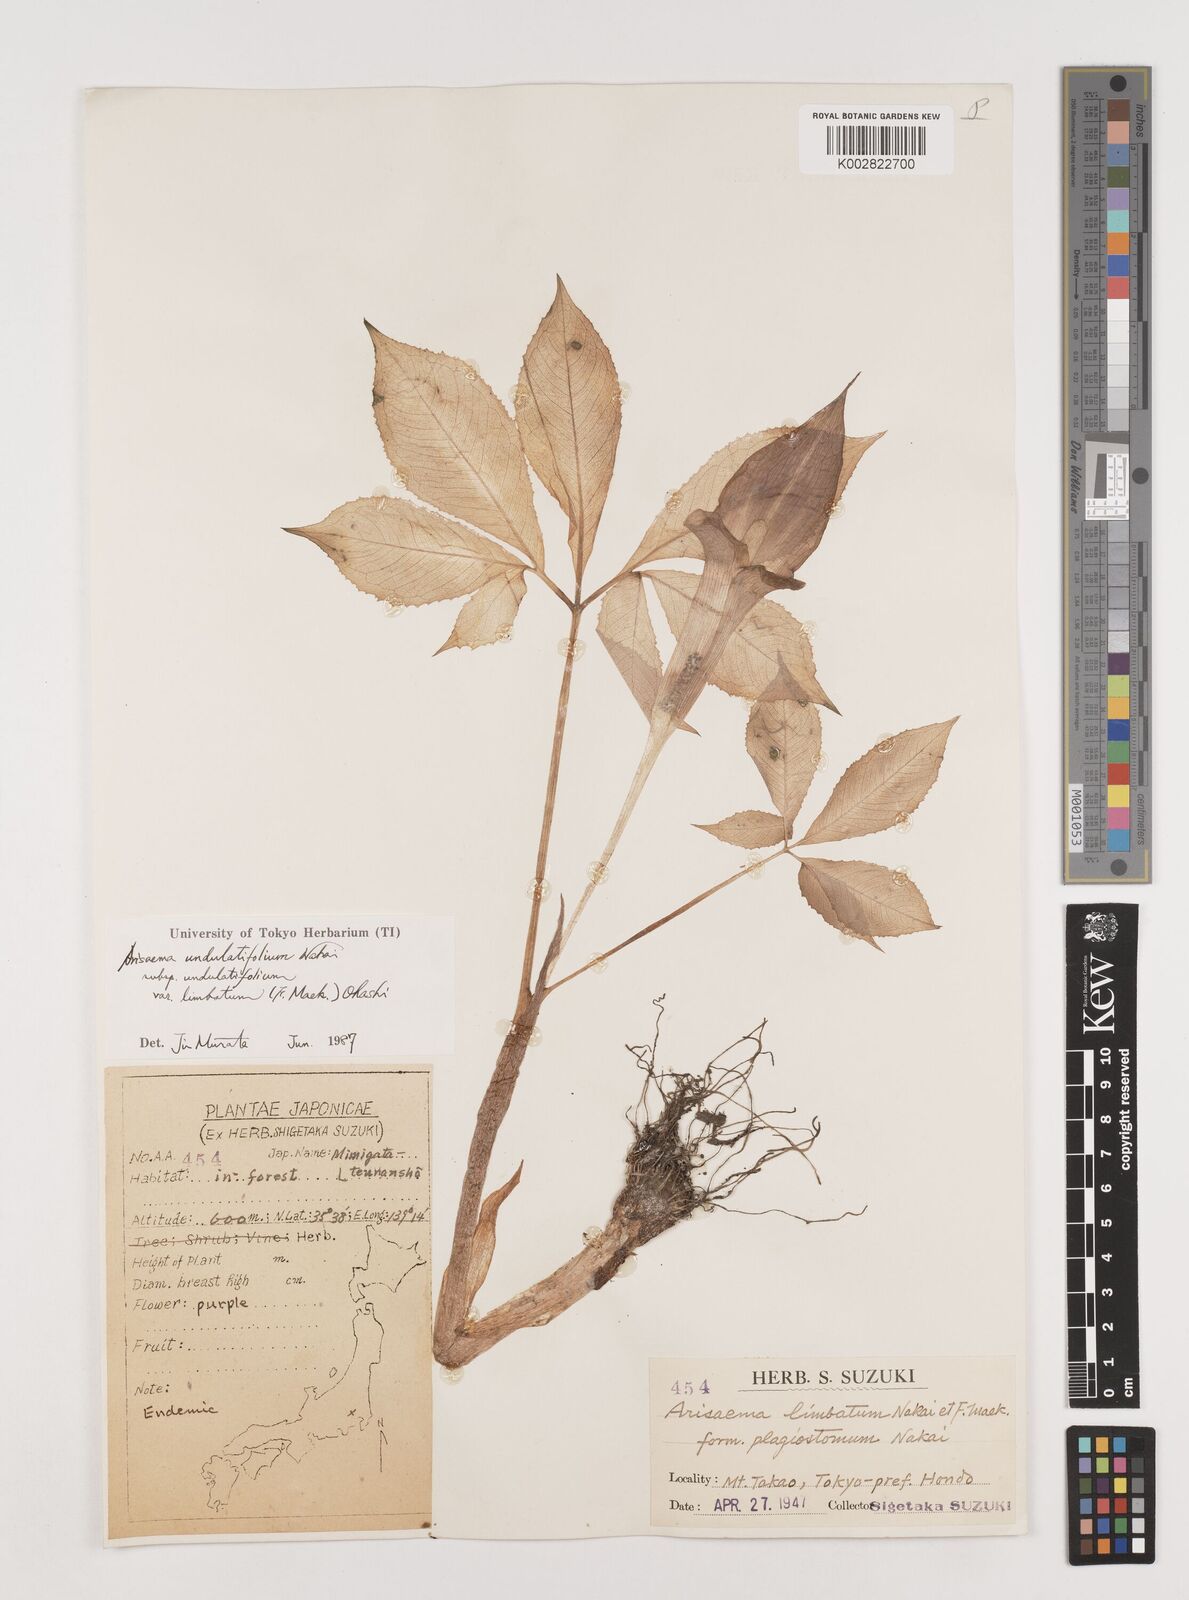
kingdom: Plantae
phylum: Tracheophyta
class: Liliopsida
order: Alismatales
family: Araceae
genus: Arisaema
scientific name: Arisaema undulatifolium
